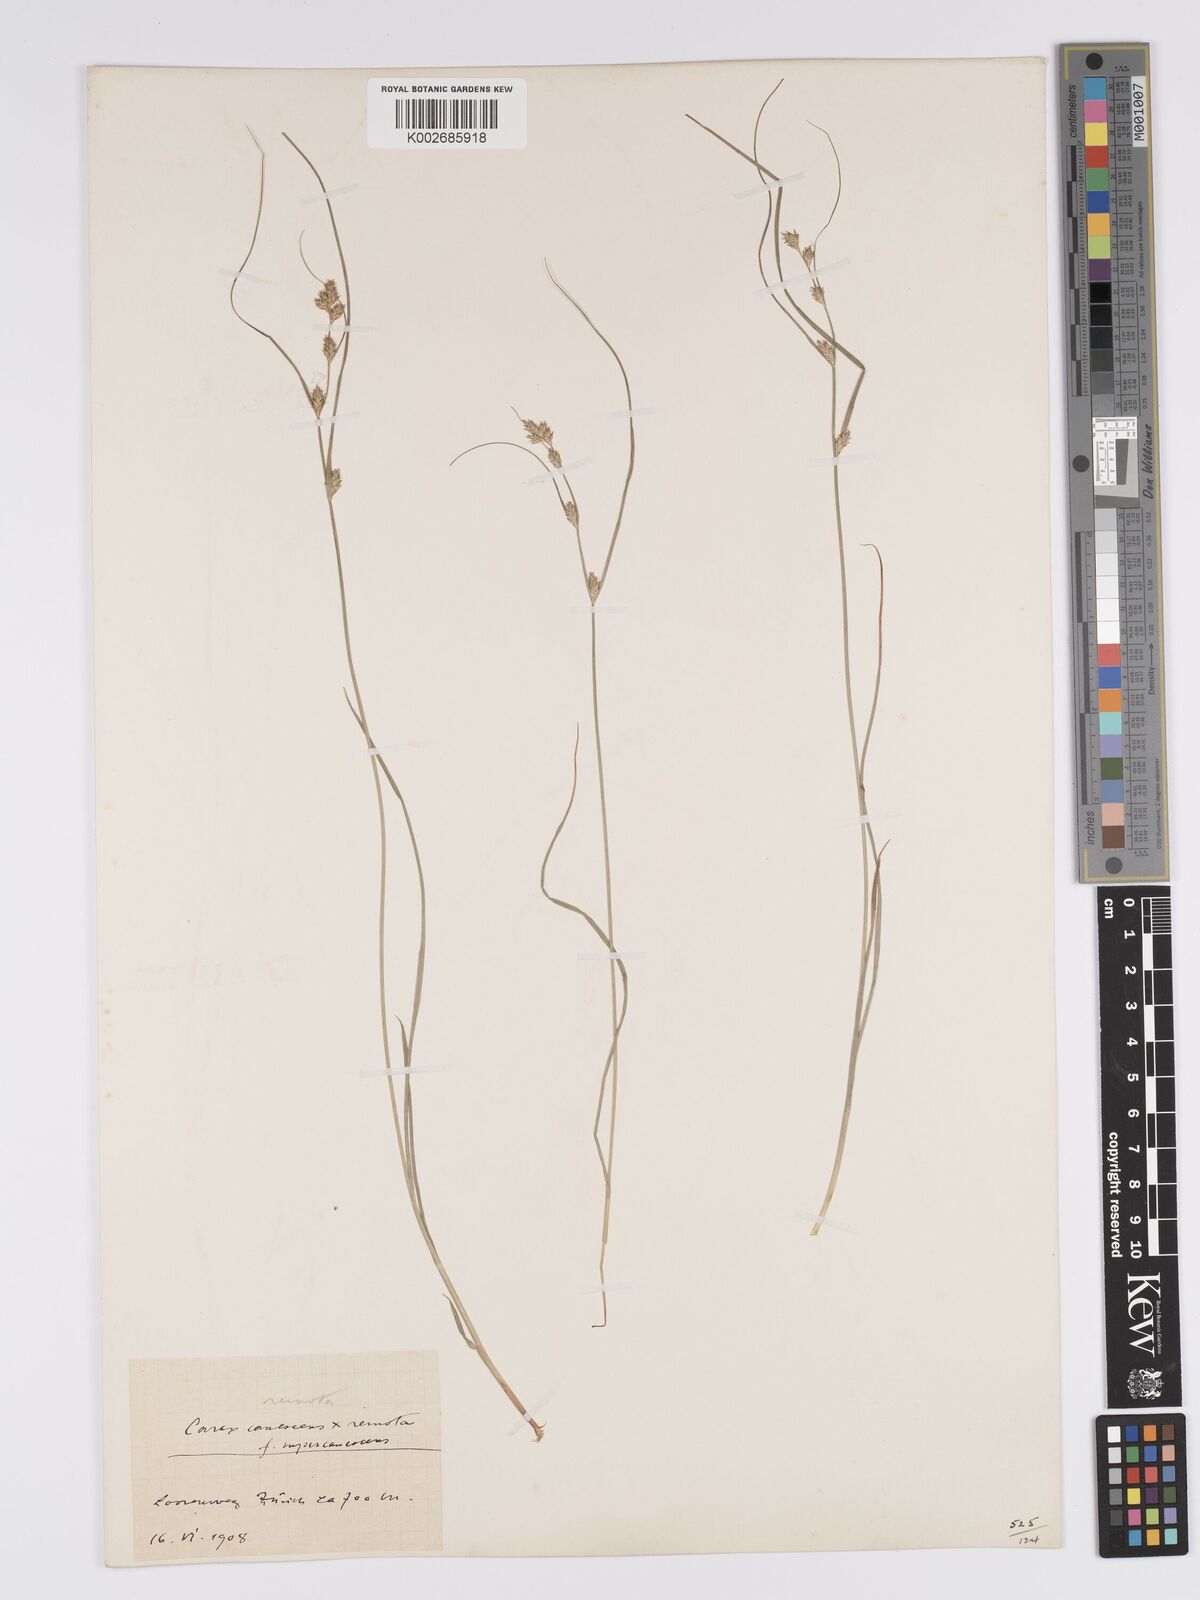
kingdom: Plantae
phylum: Tracheophyta
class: Liliopsida
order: Poales
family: Cyperaceae
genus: Carex
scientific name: Carex remota
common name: Remote sedge
